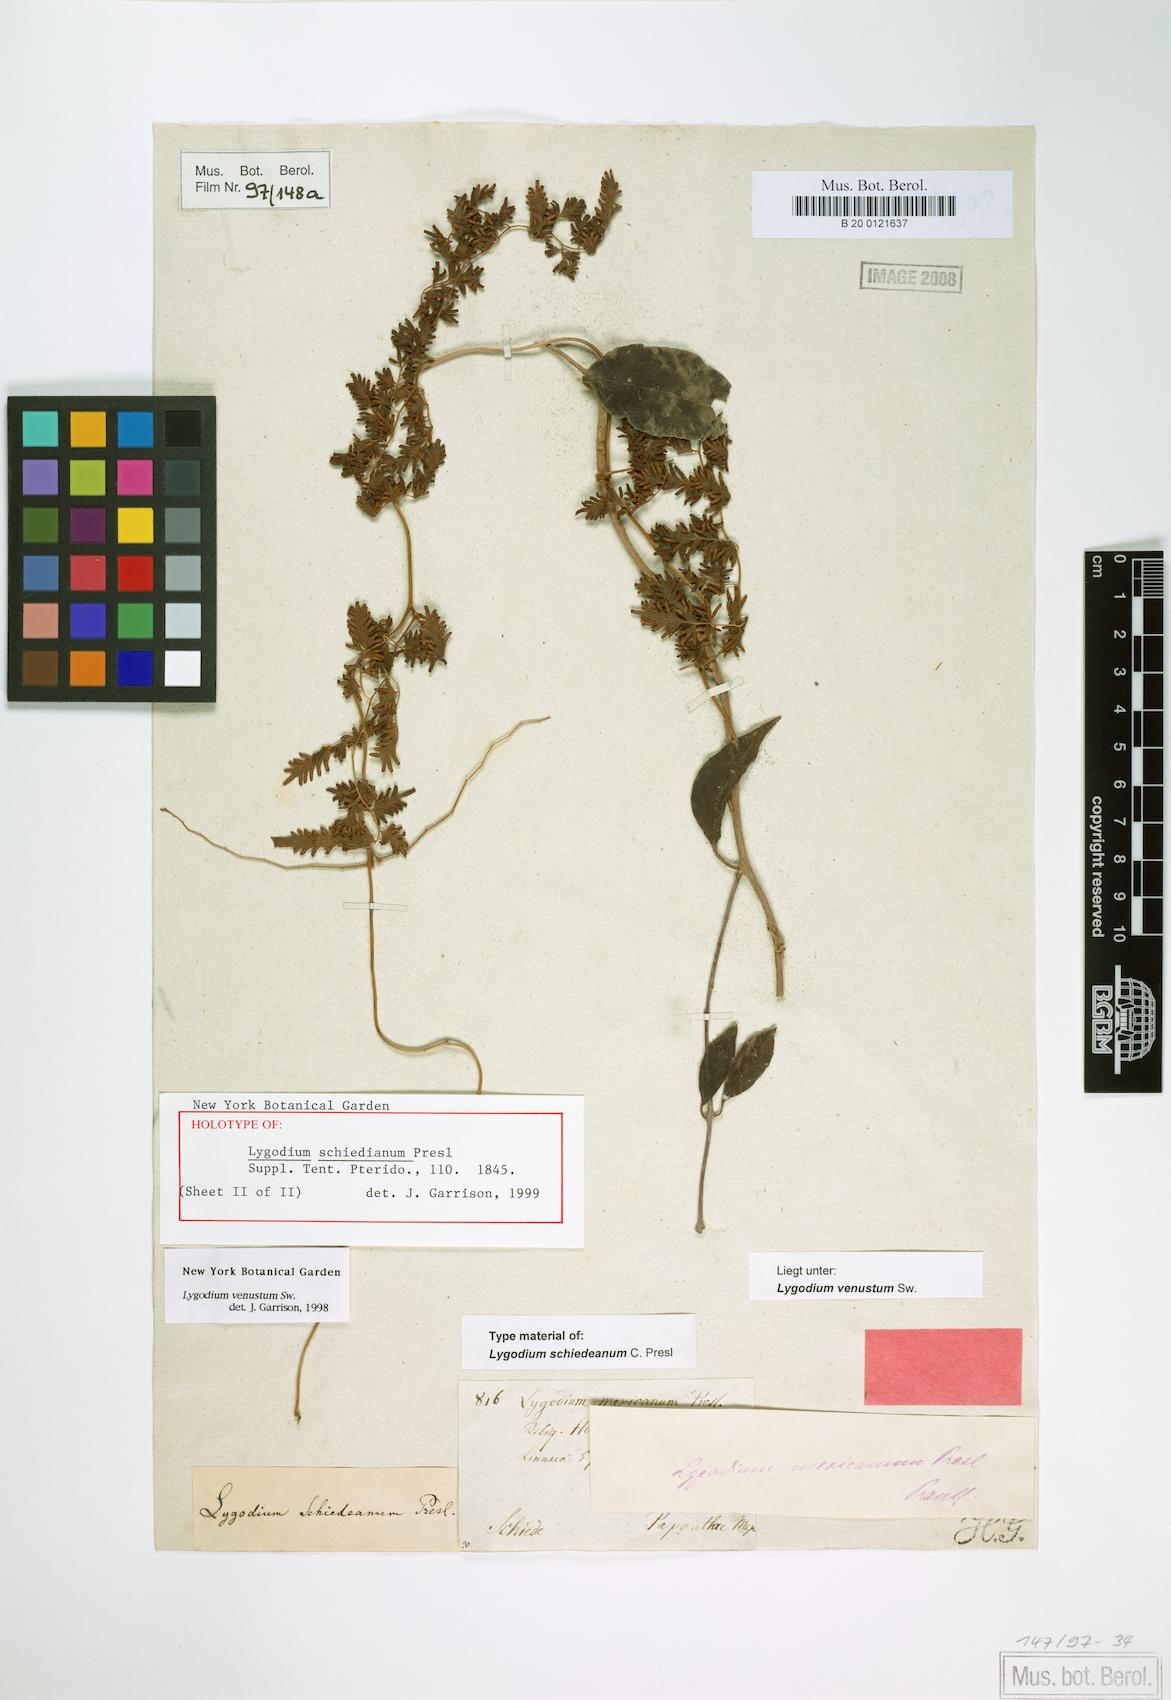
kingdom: Plantae
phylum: Tracheophyta
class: Polypodiopsida
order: Schizaeales
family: Lygodiaceae
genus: Lygodium
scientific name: Lygodium venustum
